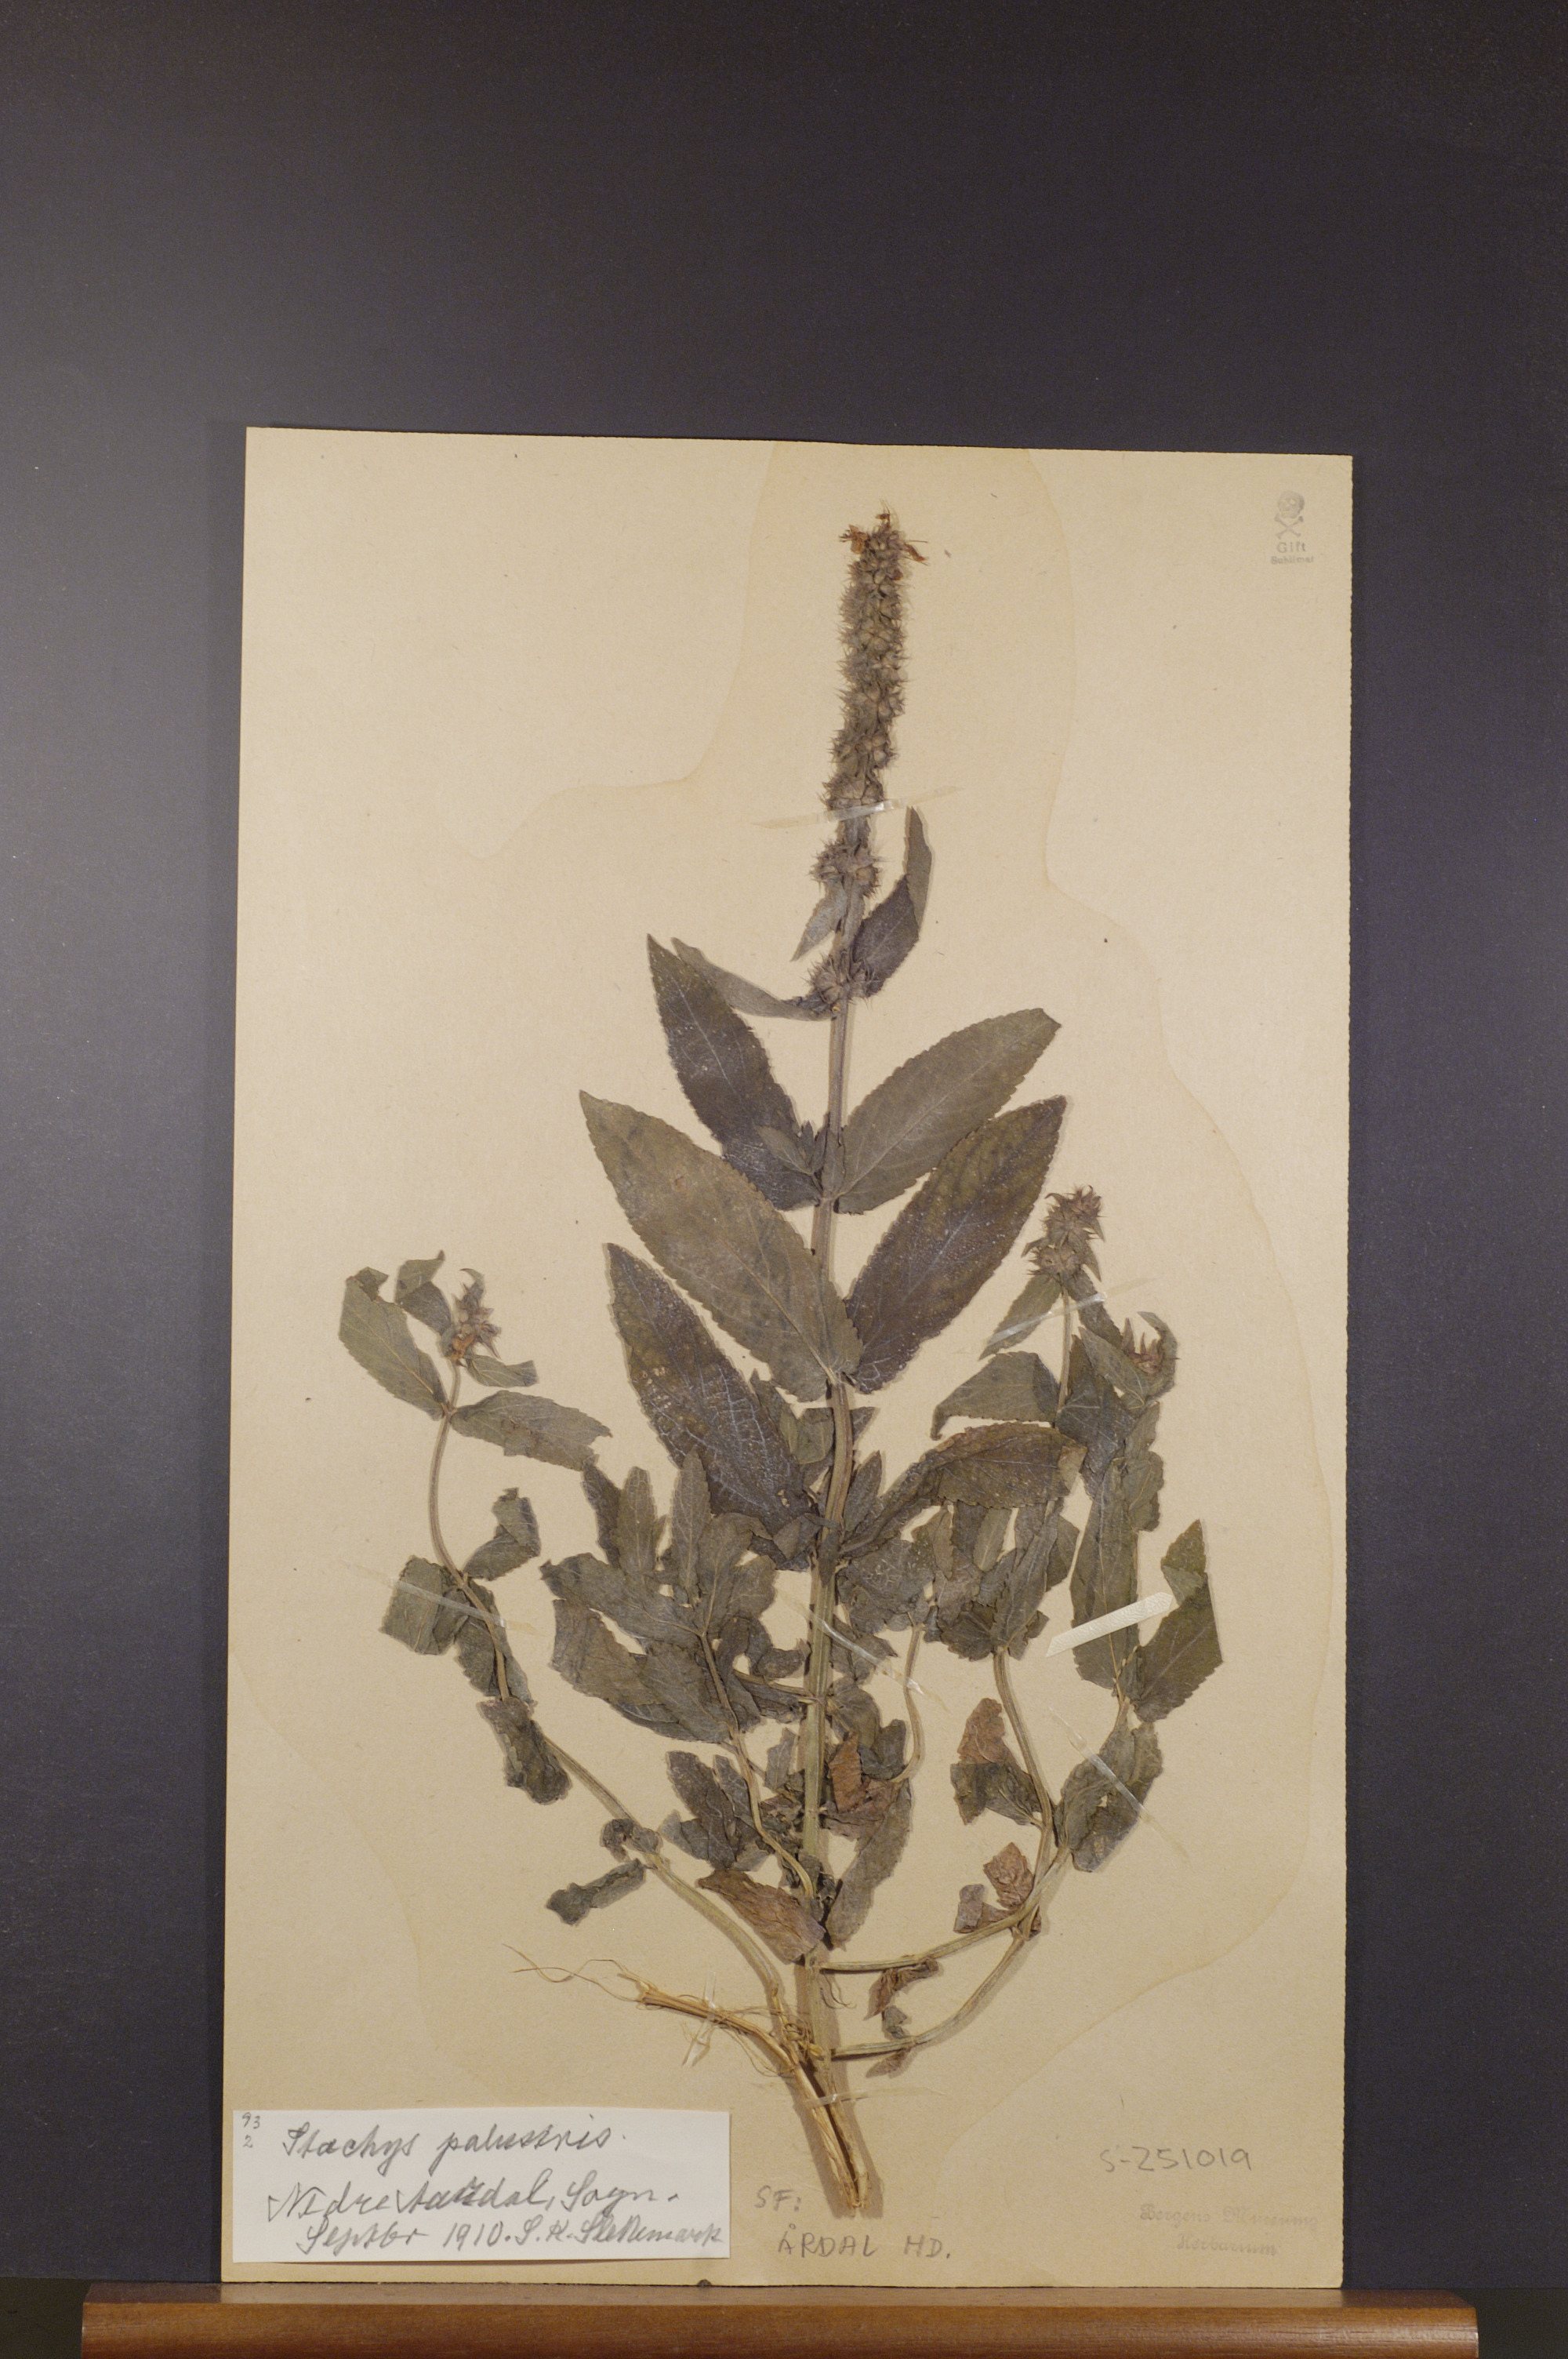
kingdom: Plantae
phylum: Tracheophyta
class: Magnoliopsida
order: Lamiales
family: Lamiaceae
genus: Stachys
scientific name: Stachys palustris
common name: Marsh woundwort
